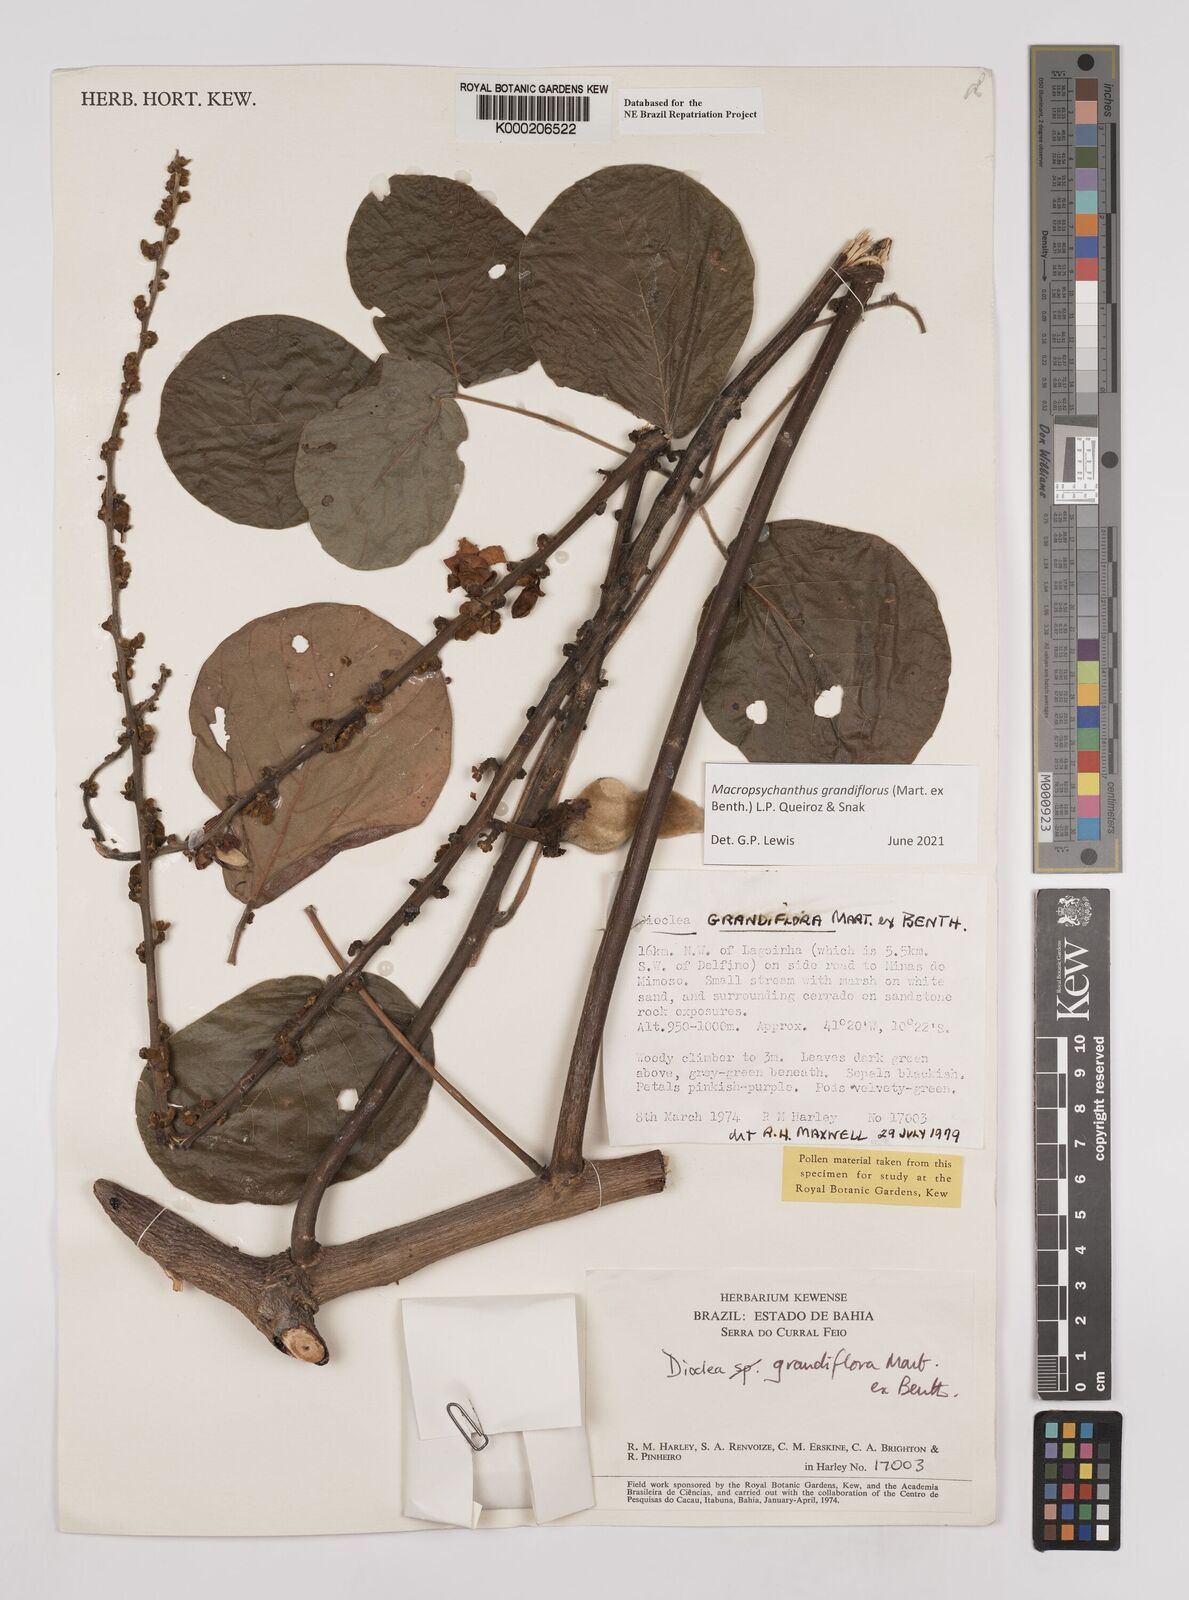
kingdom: Plantae
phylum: Tracheophyta
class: Magnoliopsida
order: Fabales
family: Fabaceae
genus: Macropsychanthus
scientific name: Macropsychanthus grandiflorus
